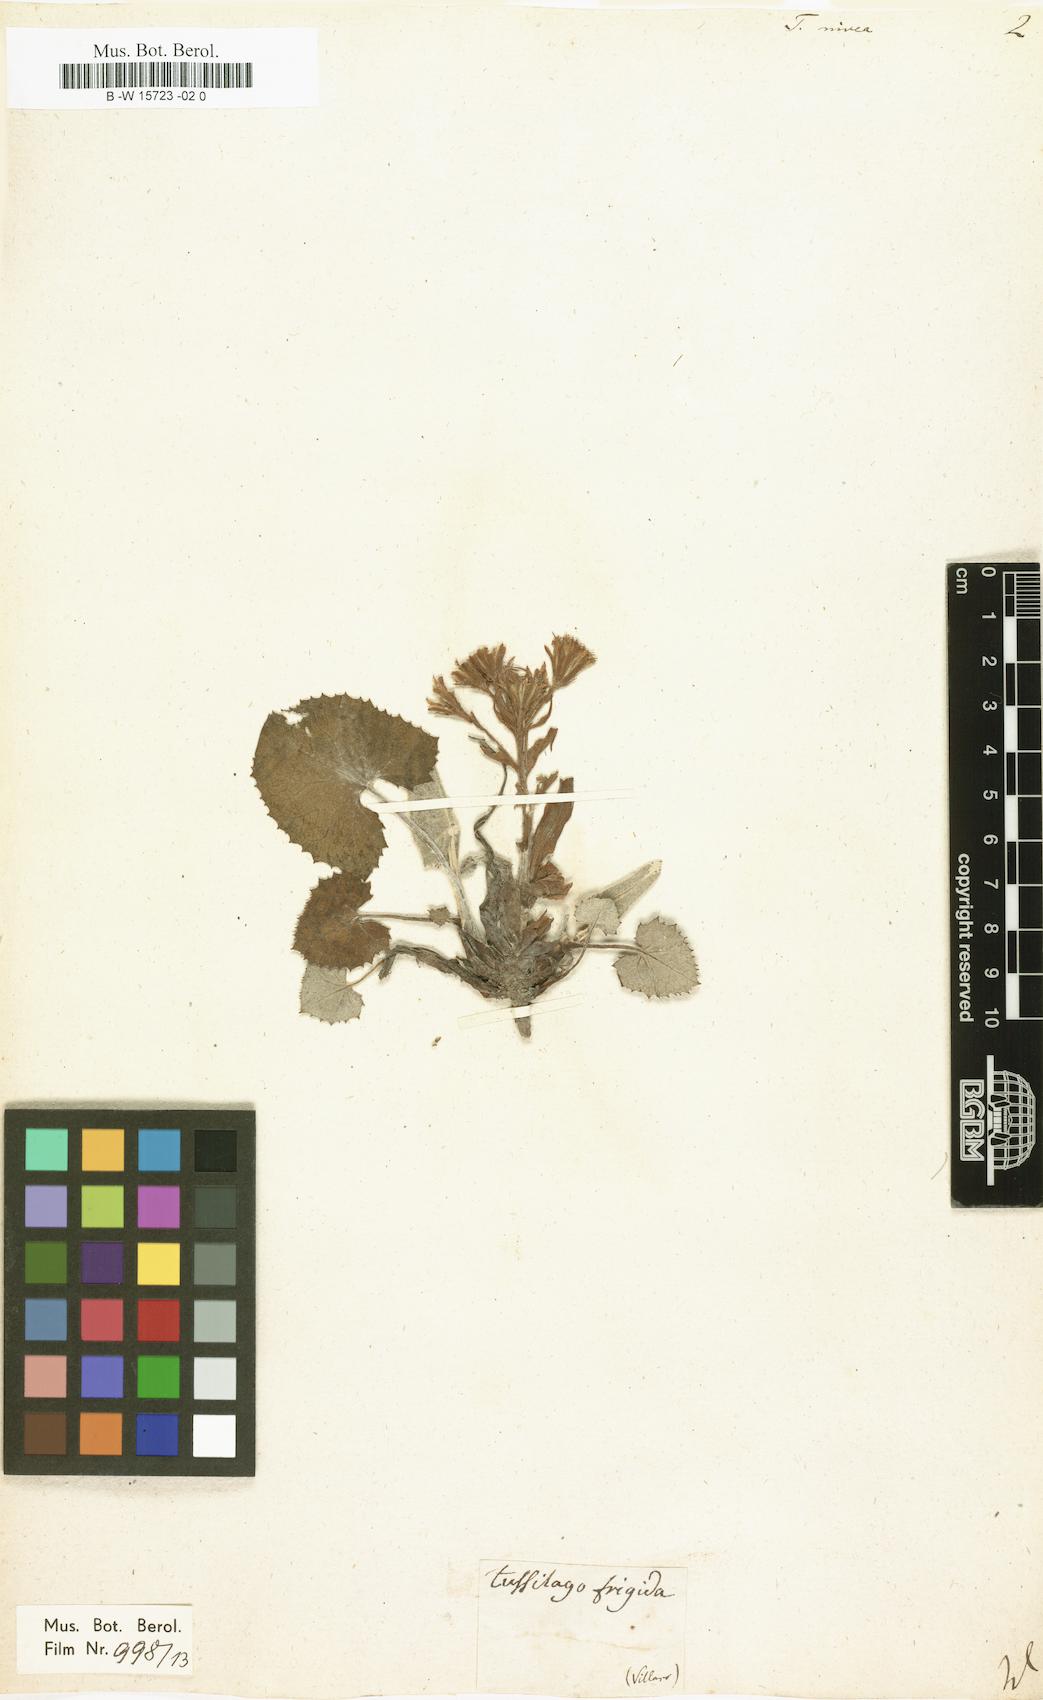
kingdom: Plantae
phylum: Tracheophyta
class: Magnoliopsida
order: Asterales
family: Asteraceae
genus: Petasites
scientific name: Petasites paradoxus
